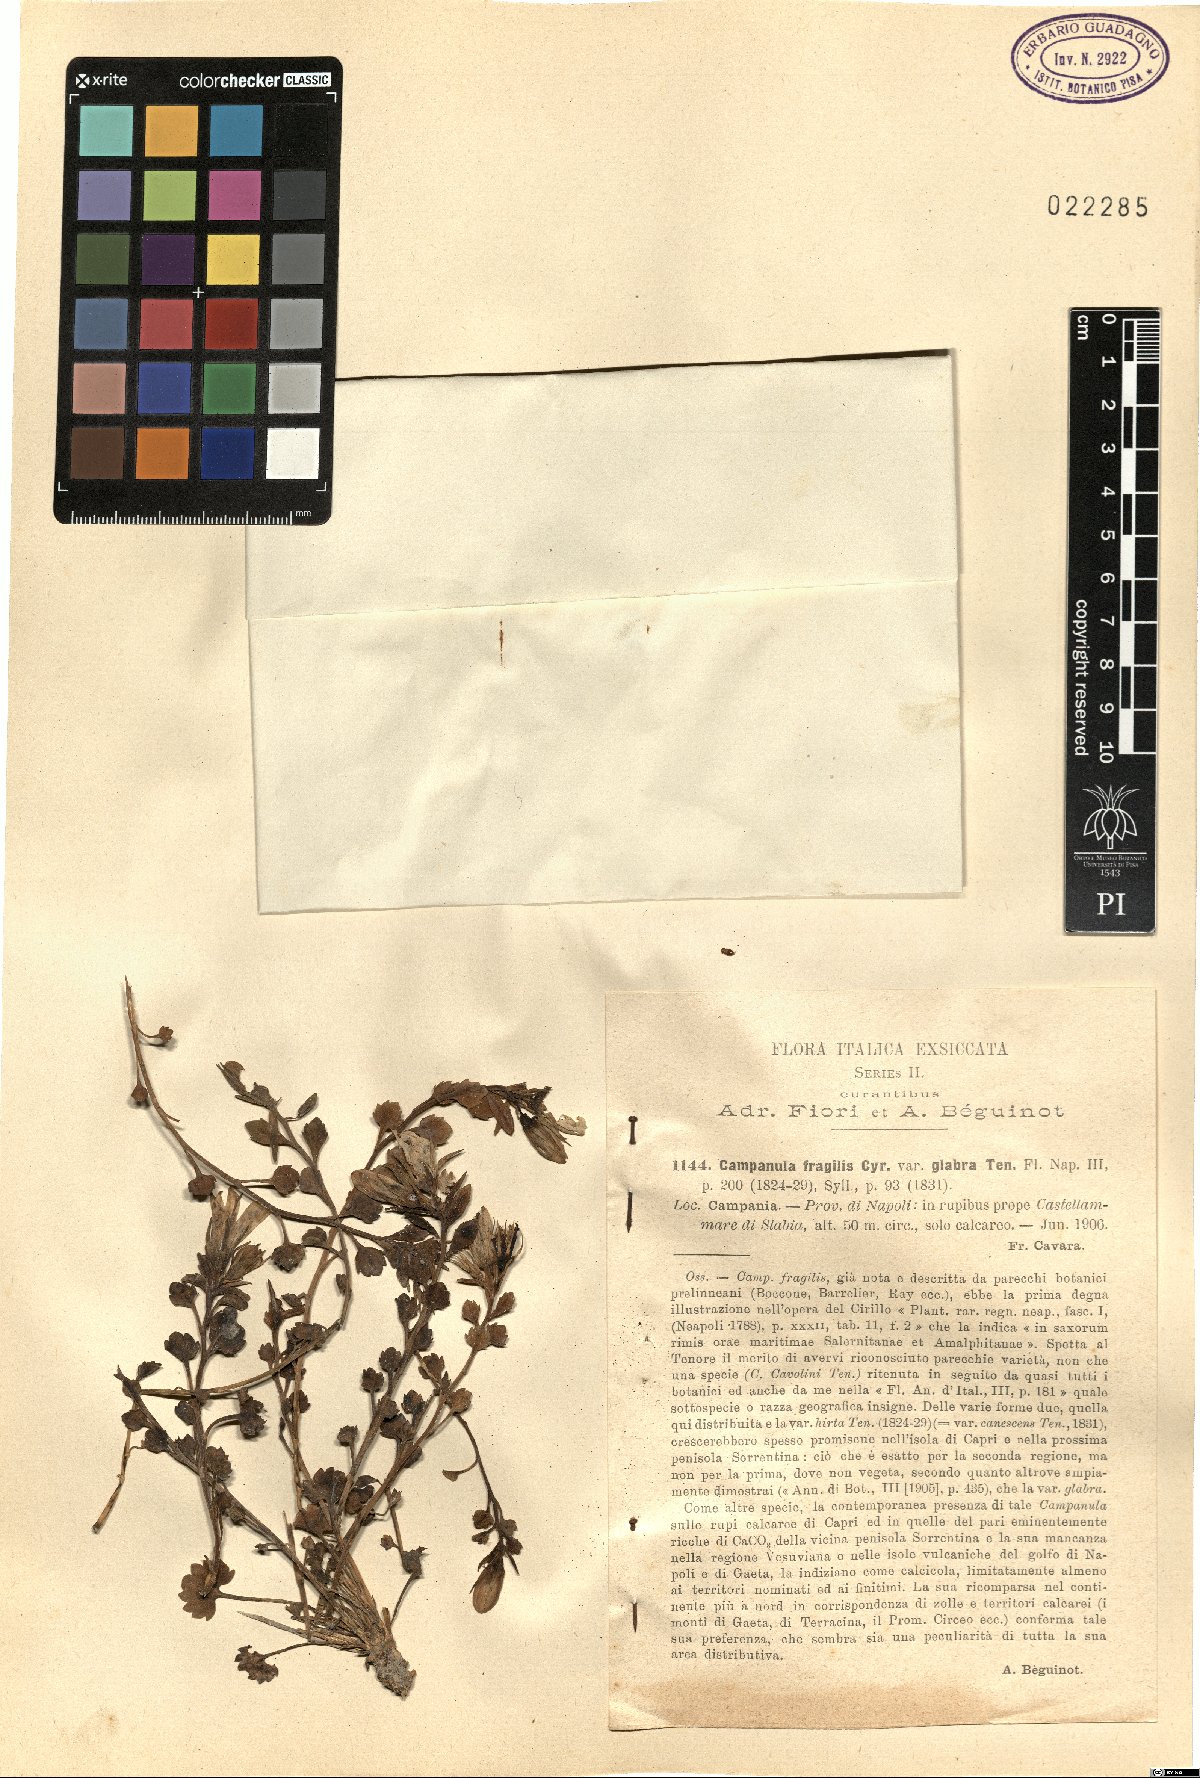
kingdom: Plantae
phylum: Tracheophyta
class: Magnoliopsida
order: Asterales
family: Campanulaceae
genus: Campanula
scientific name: Campanula fragilis
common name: Italian bellflower
